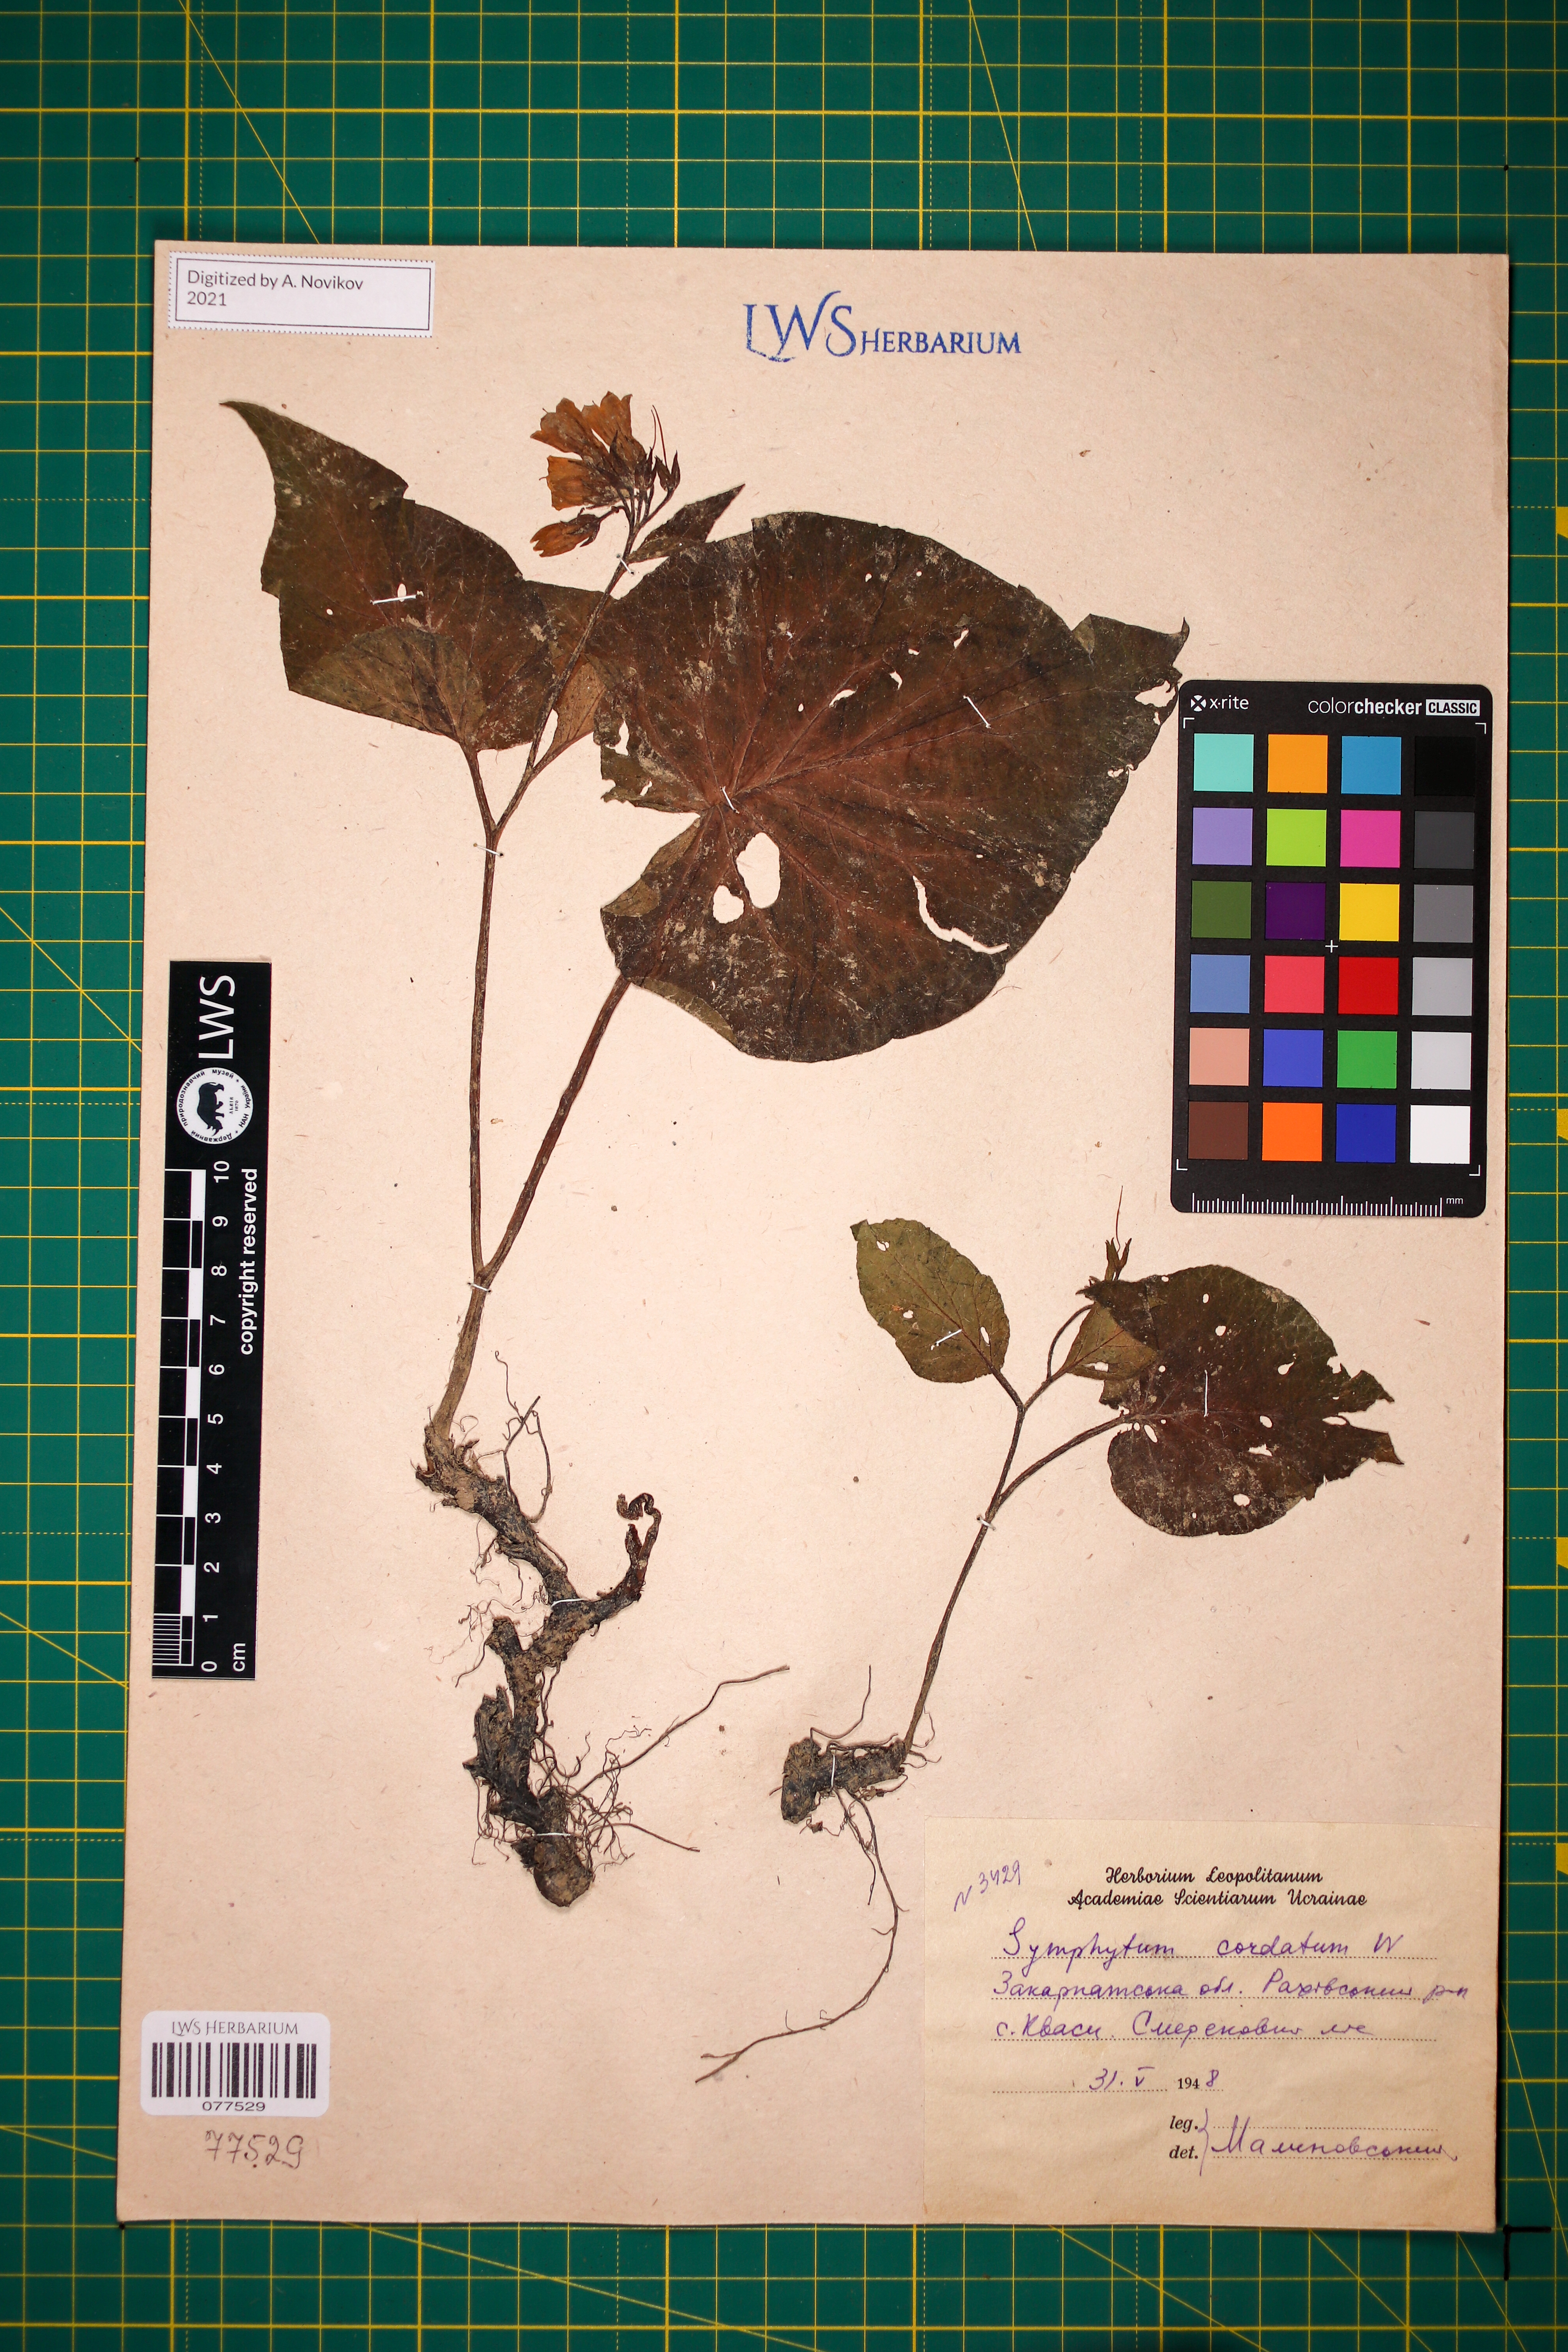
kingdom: Plantae
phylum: Tracheophyta
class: Magnoliopsida
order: Boraginales
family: Boraginaceae
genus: Symphytum
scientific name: Symphytum cordatum
